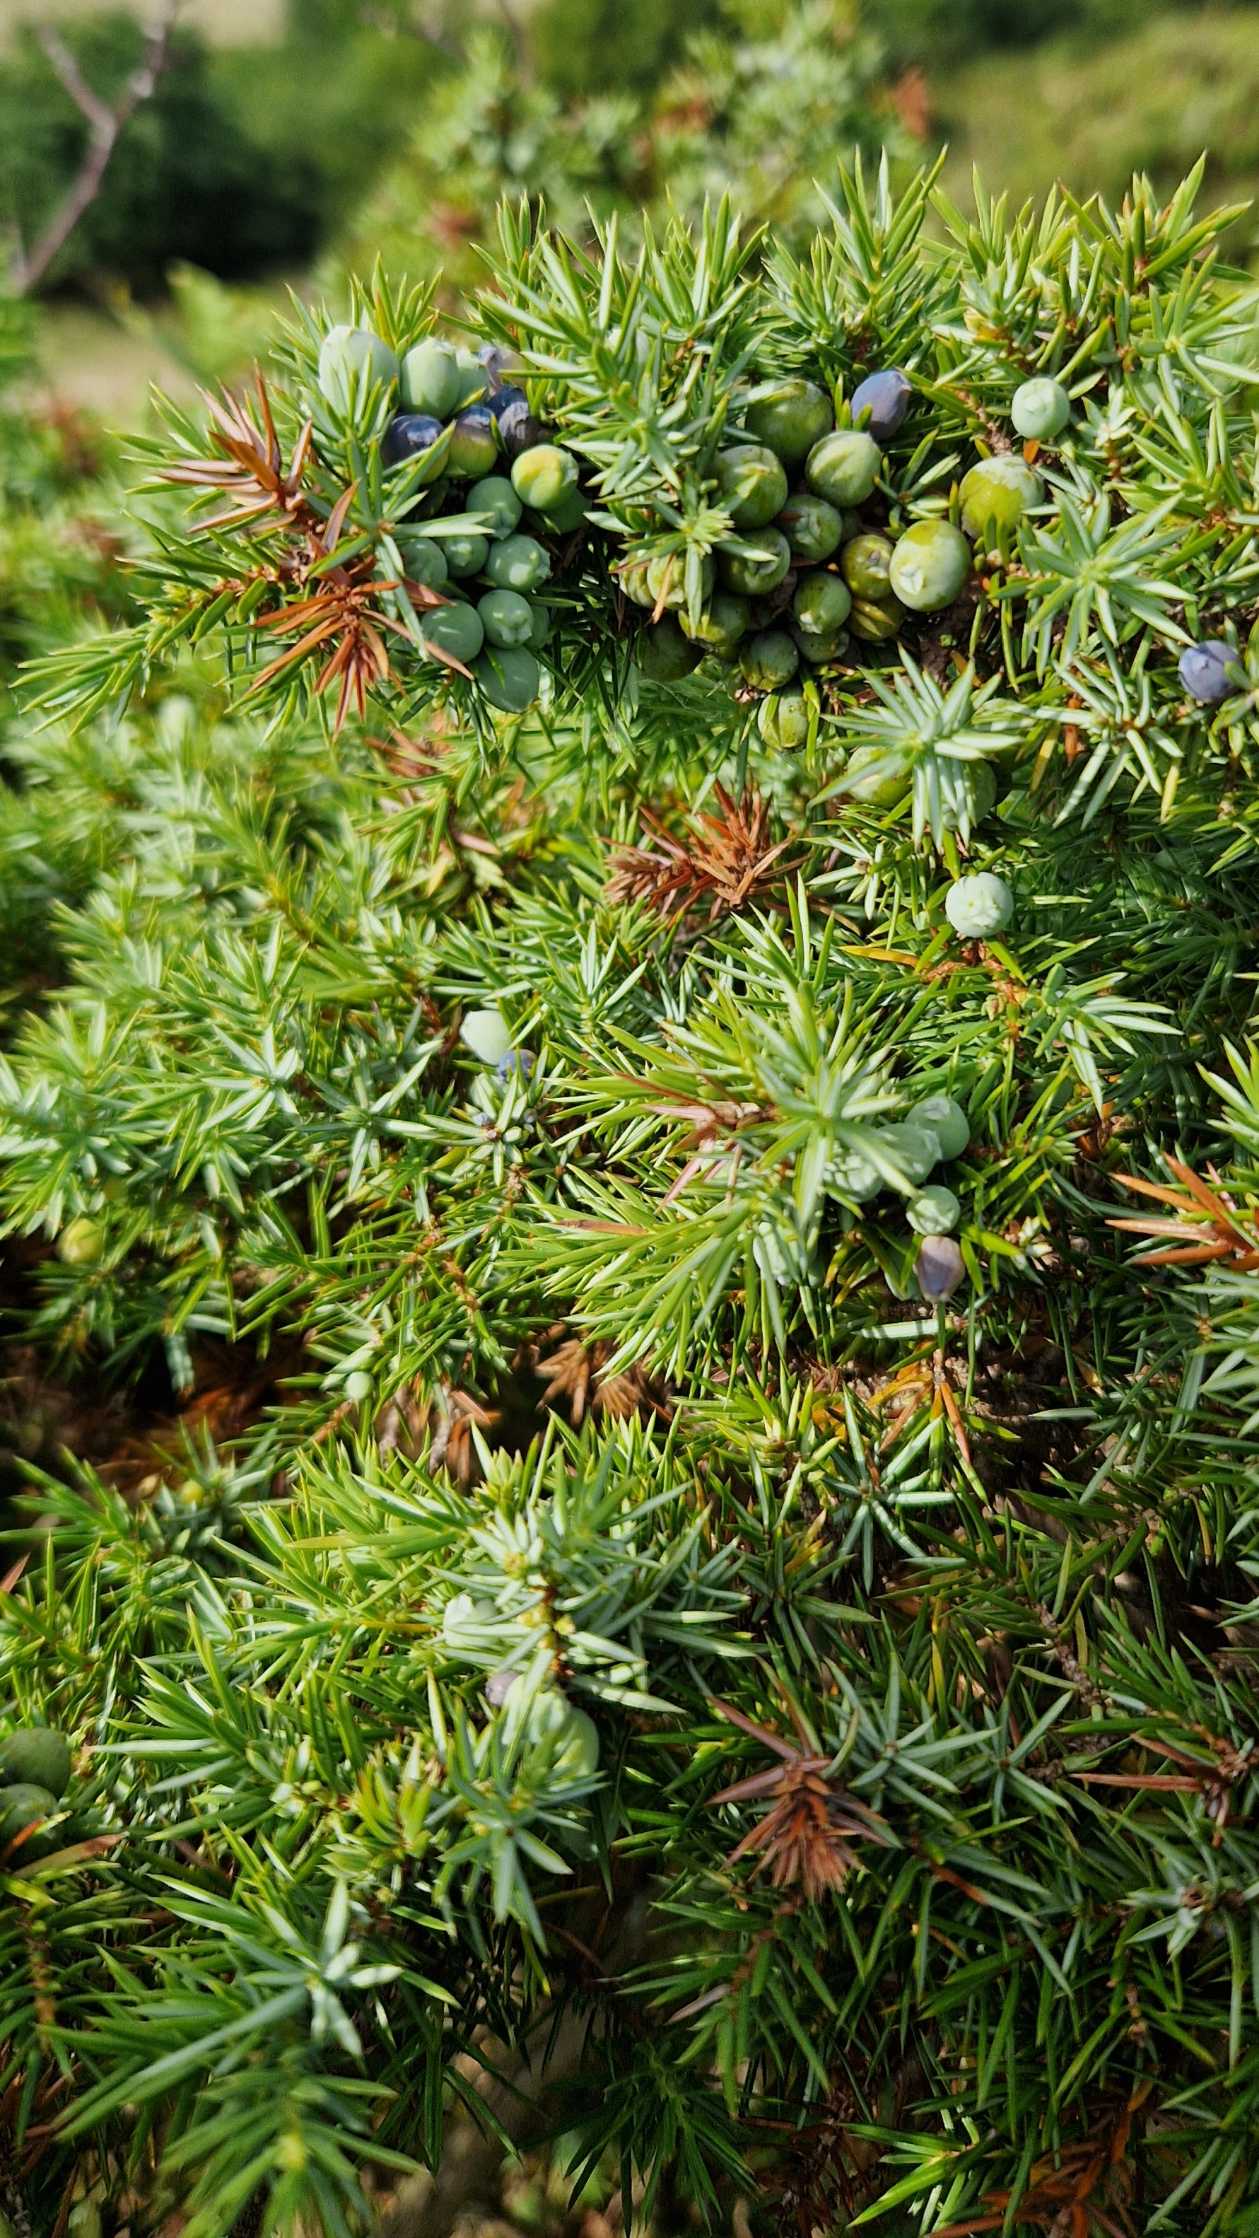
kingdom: Plantae
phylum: Tracheophyta
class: Pinopsida
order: Pinales
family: Cupressaceae
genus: Juniperus
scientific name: Juniperus communis
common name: Almindelig ene
